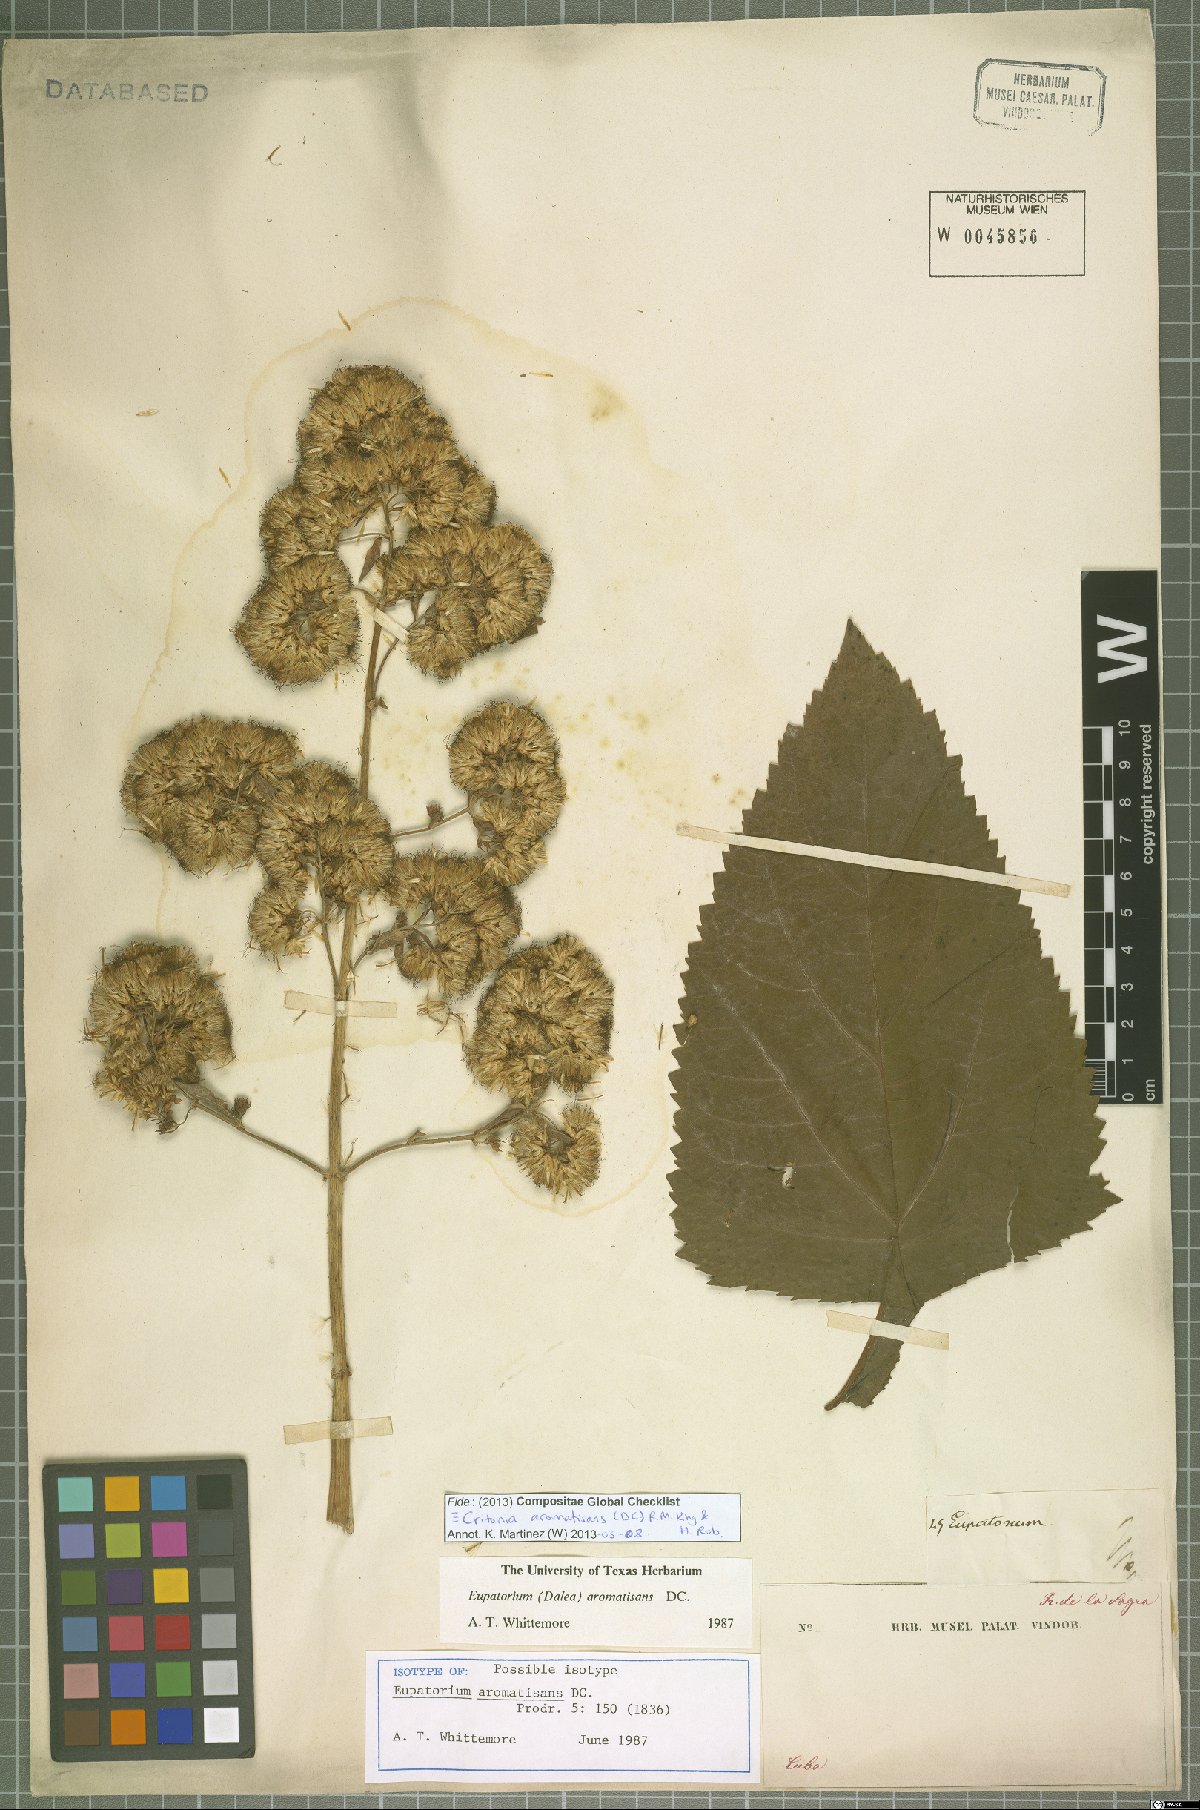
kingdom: Plantae
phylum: Tracheophyta
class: Magnoliopsida
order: Asterales
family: Asteraceae
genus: Critonia
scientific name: Critonia aromatisans
